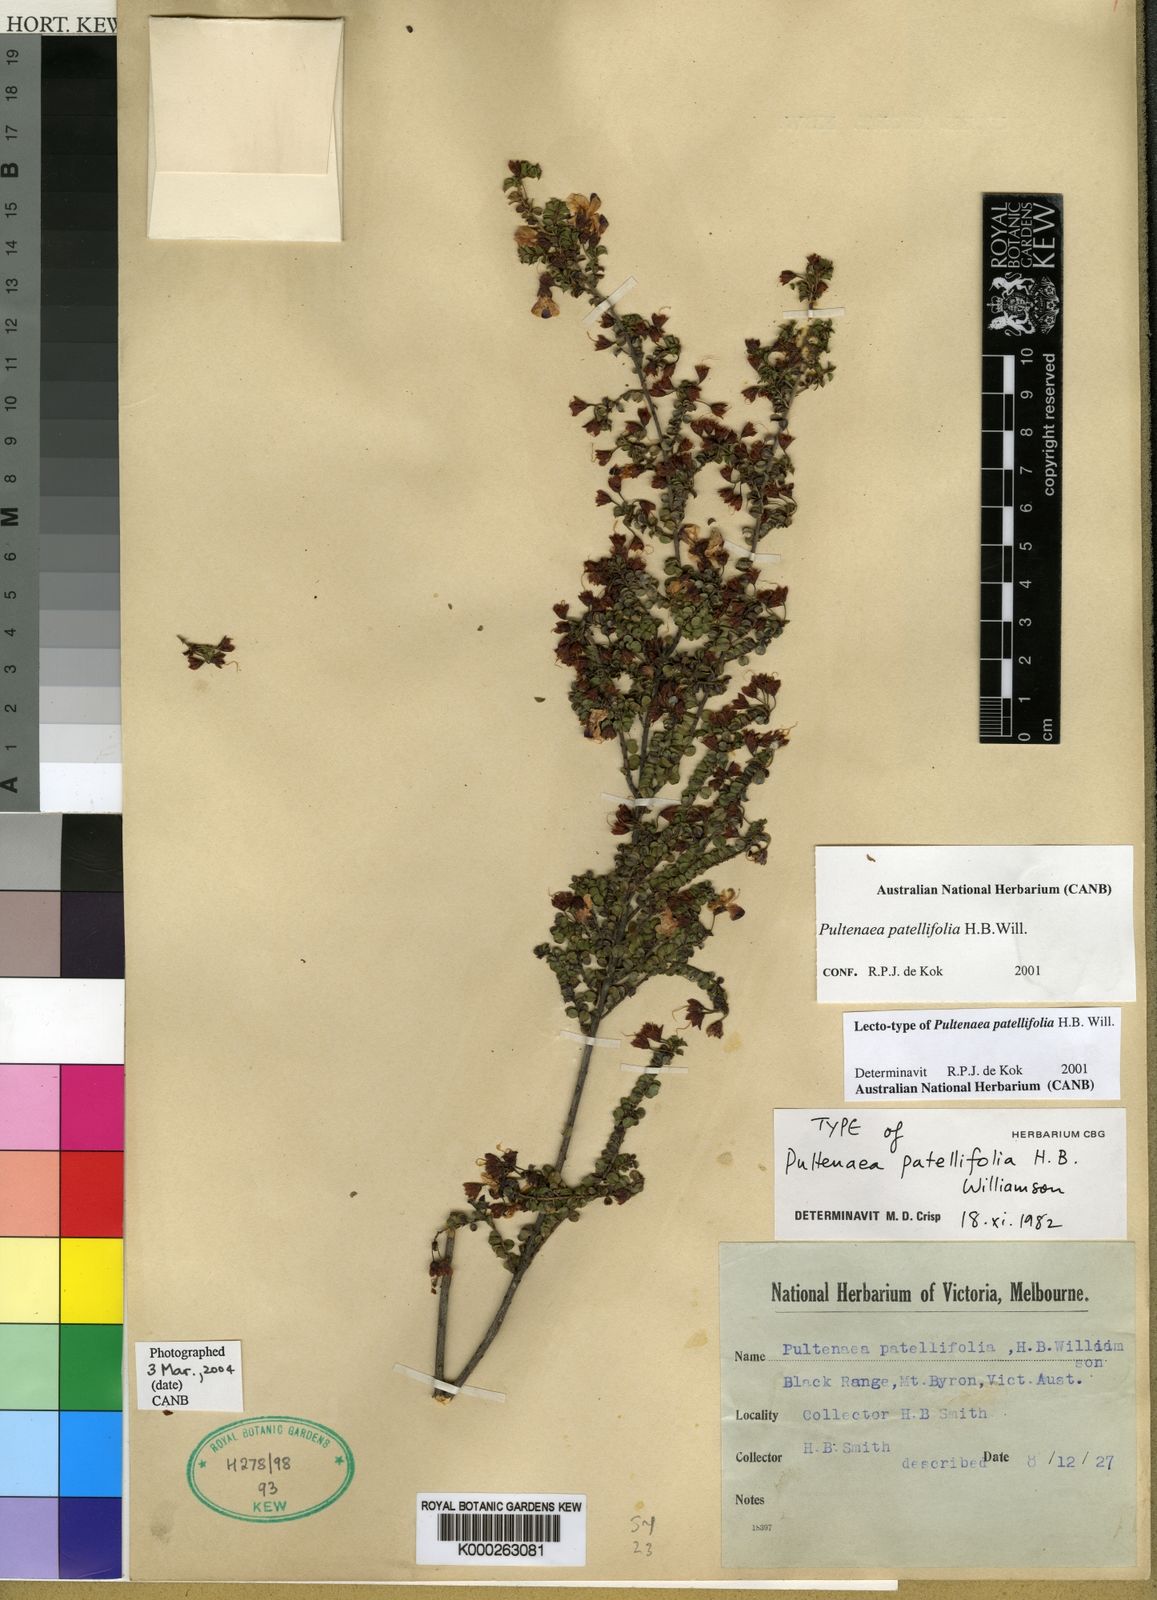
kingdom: Plantae
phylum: Tracheophyta
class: Magnoliopsida
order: Fabales
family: Fabaceae
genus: Pultenaea
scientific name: Pultenaea patellifolia
